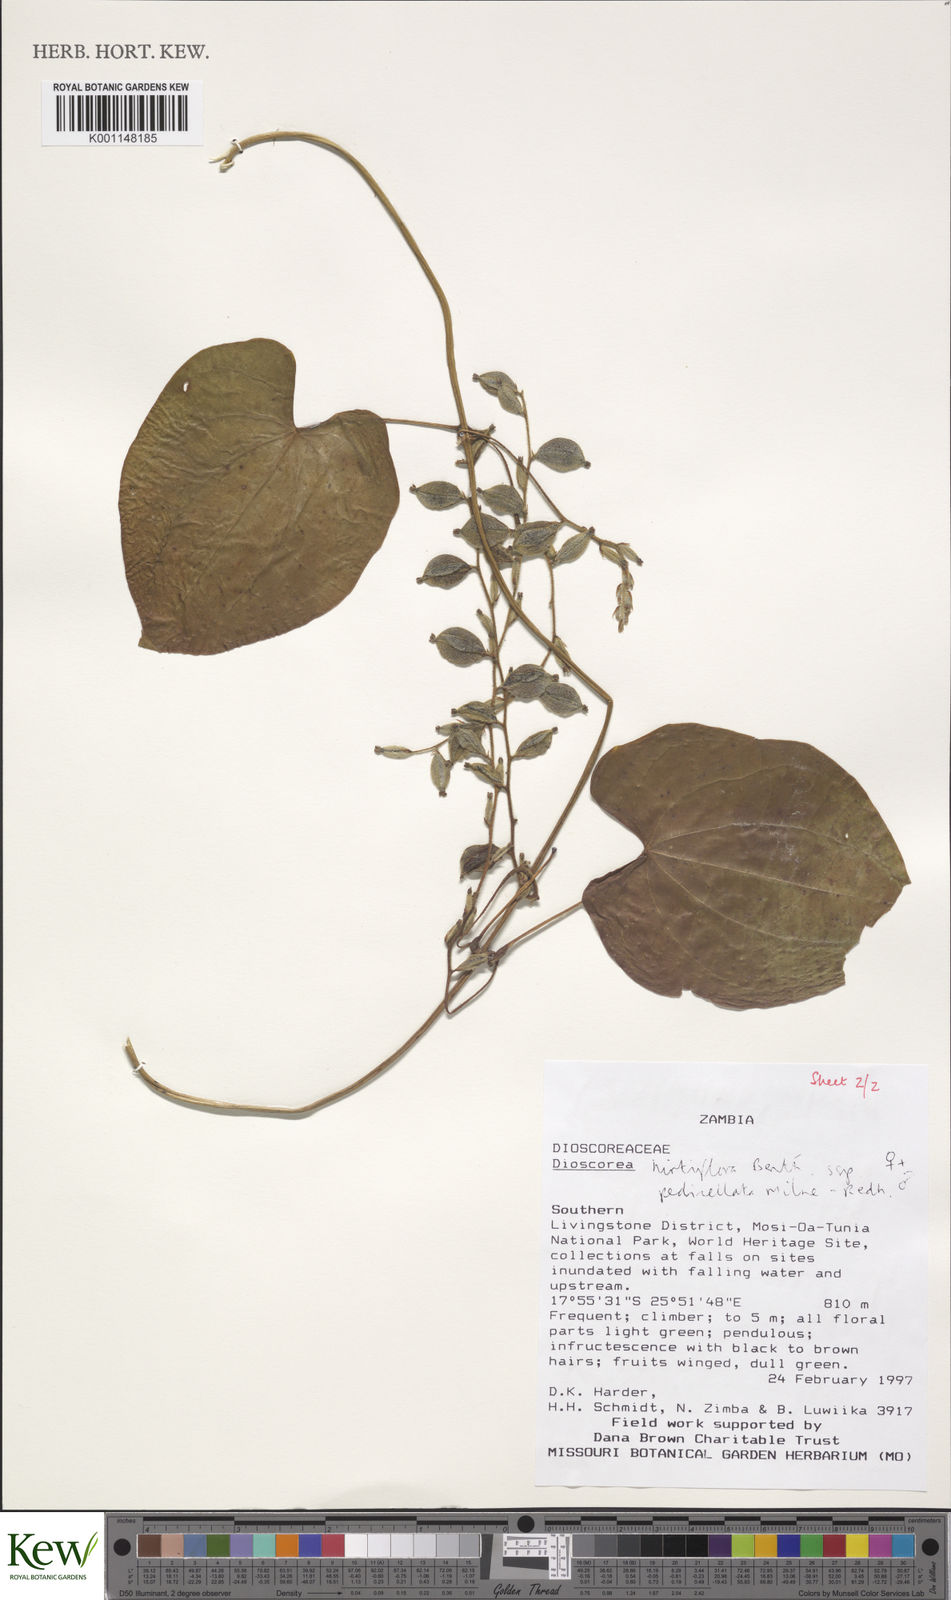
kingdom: Plantae
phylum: Tracheophyta
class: Liliopsida
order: Dioscoreales
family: Dioscoreaceae
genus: Dioscorea
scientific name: Dioscorea hirtiflora
